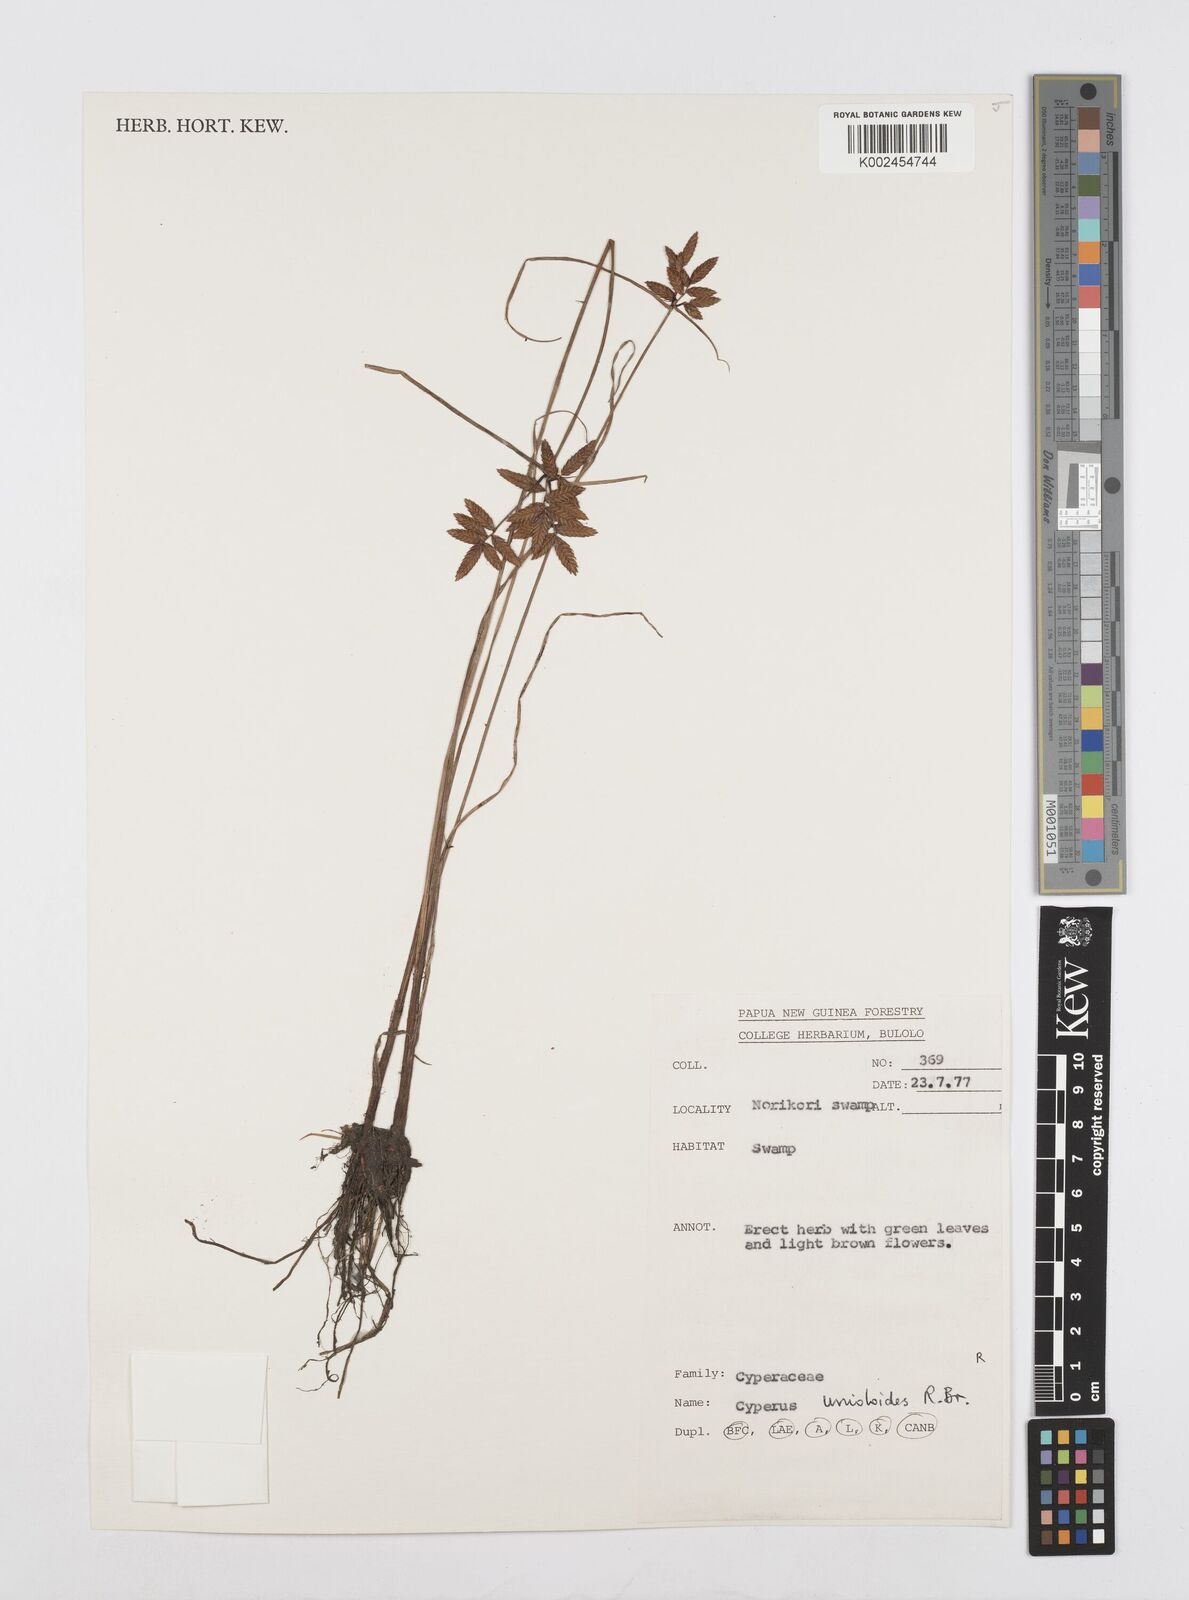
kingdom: Plantae
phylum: Tracheophyta
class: Liliopsida
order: Poales
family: Cyperaceae
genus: Cyperus
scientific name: Cyperus unioloides
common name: Uniola flatsedge
